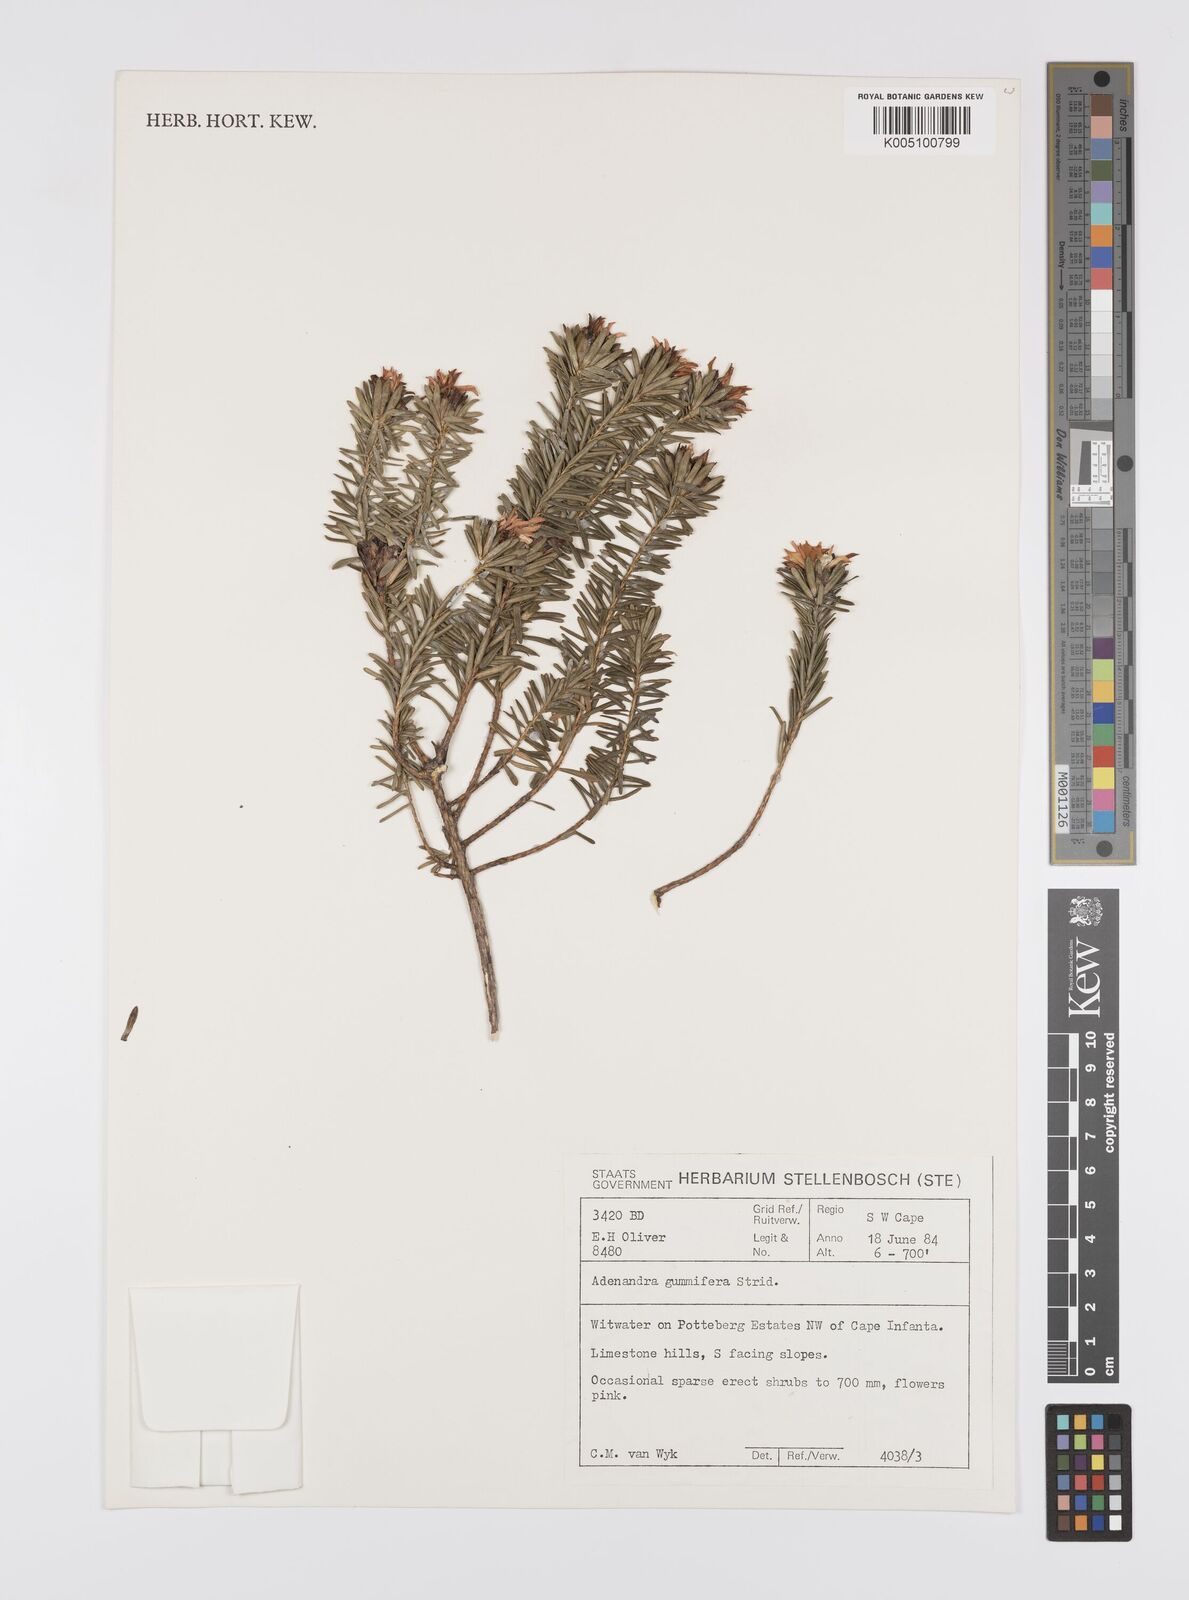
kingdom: Plantae
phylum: Tracheophyta
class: Magnoliopsida
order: Sapindales
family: Rutaceae
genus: Adenandra
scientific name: Adenandra gummifera
